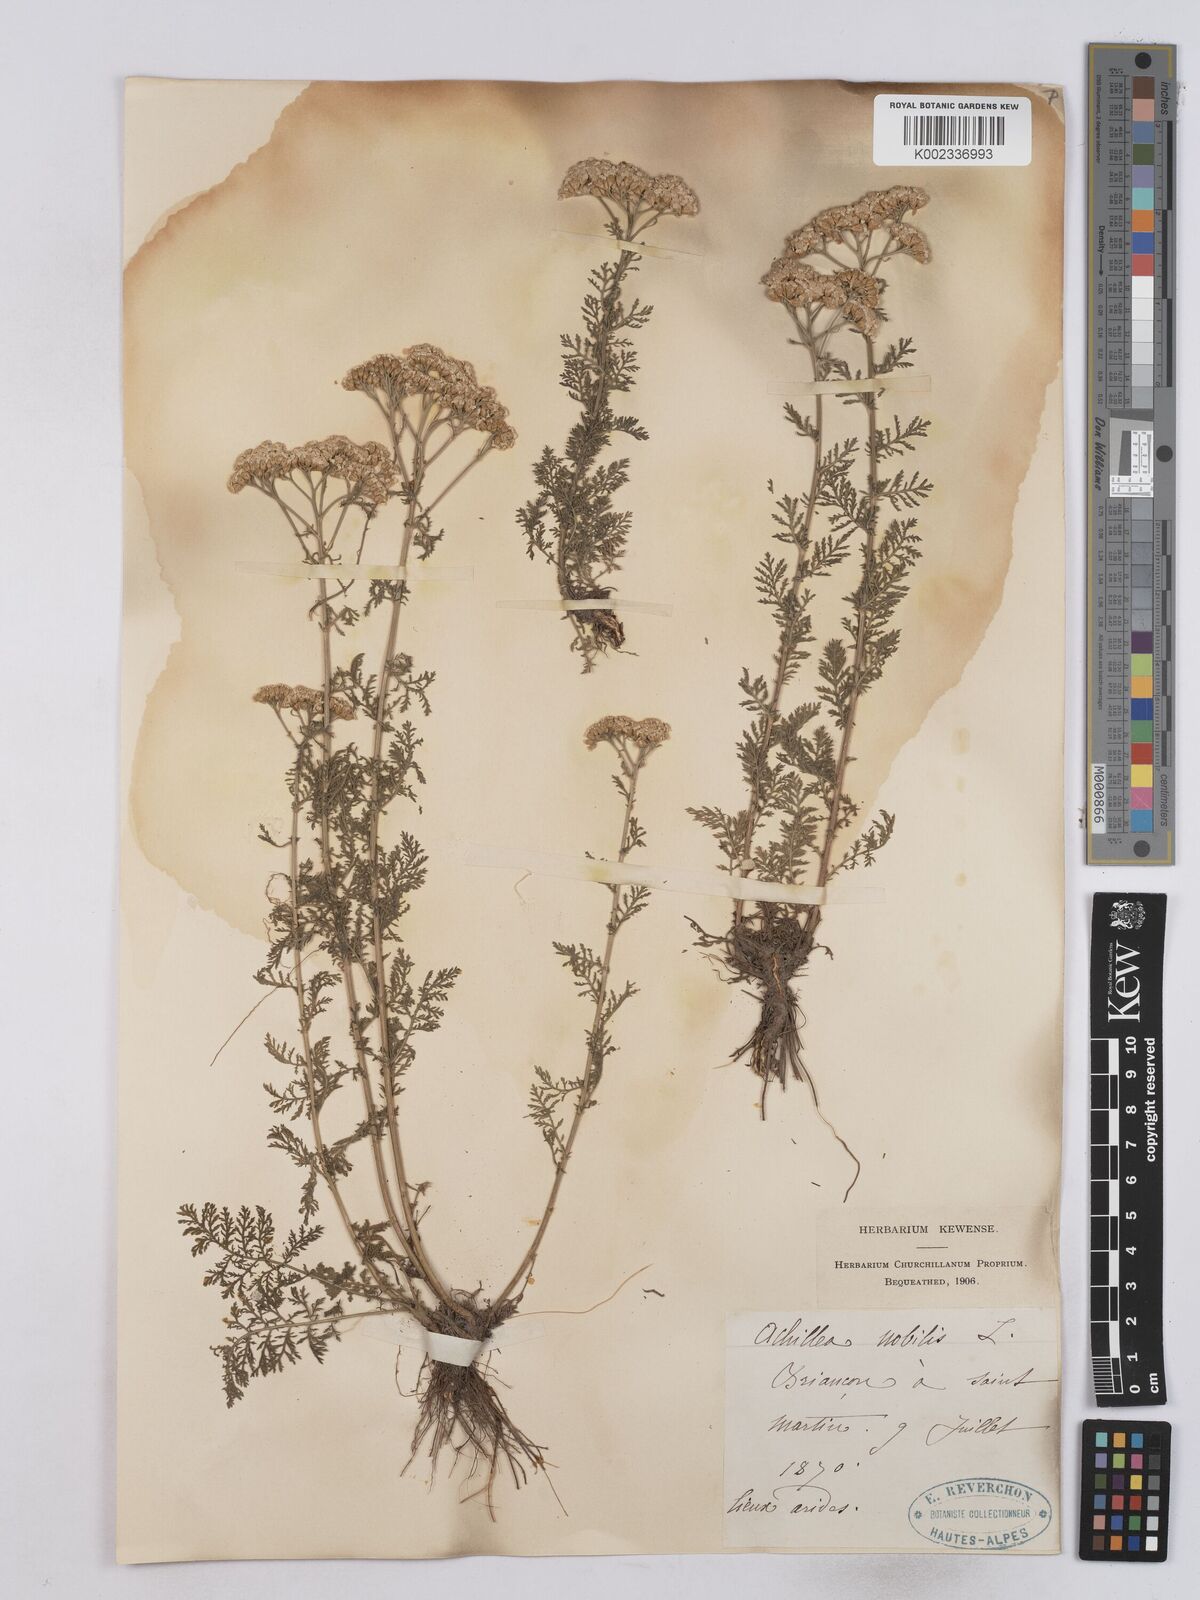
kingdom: Plantae
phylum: Tracheophyta
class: Magnoliopsida
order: Asterales
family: Asteraceae
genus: Achillea
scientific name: Achillea nobilis
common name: Noble yarrow
